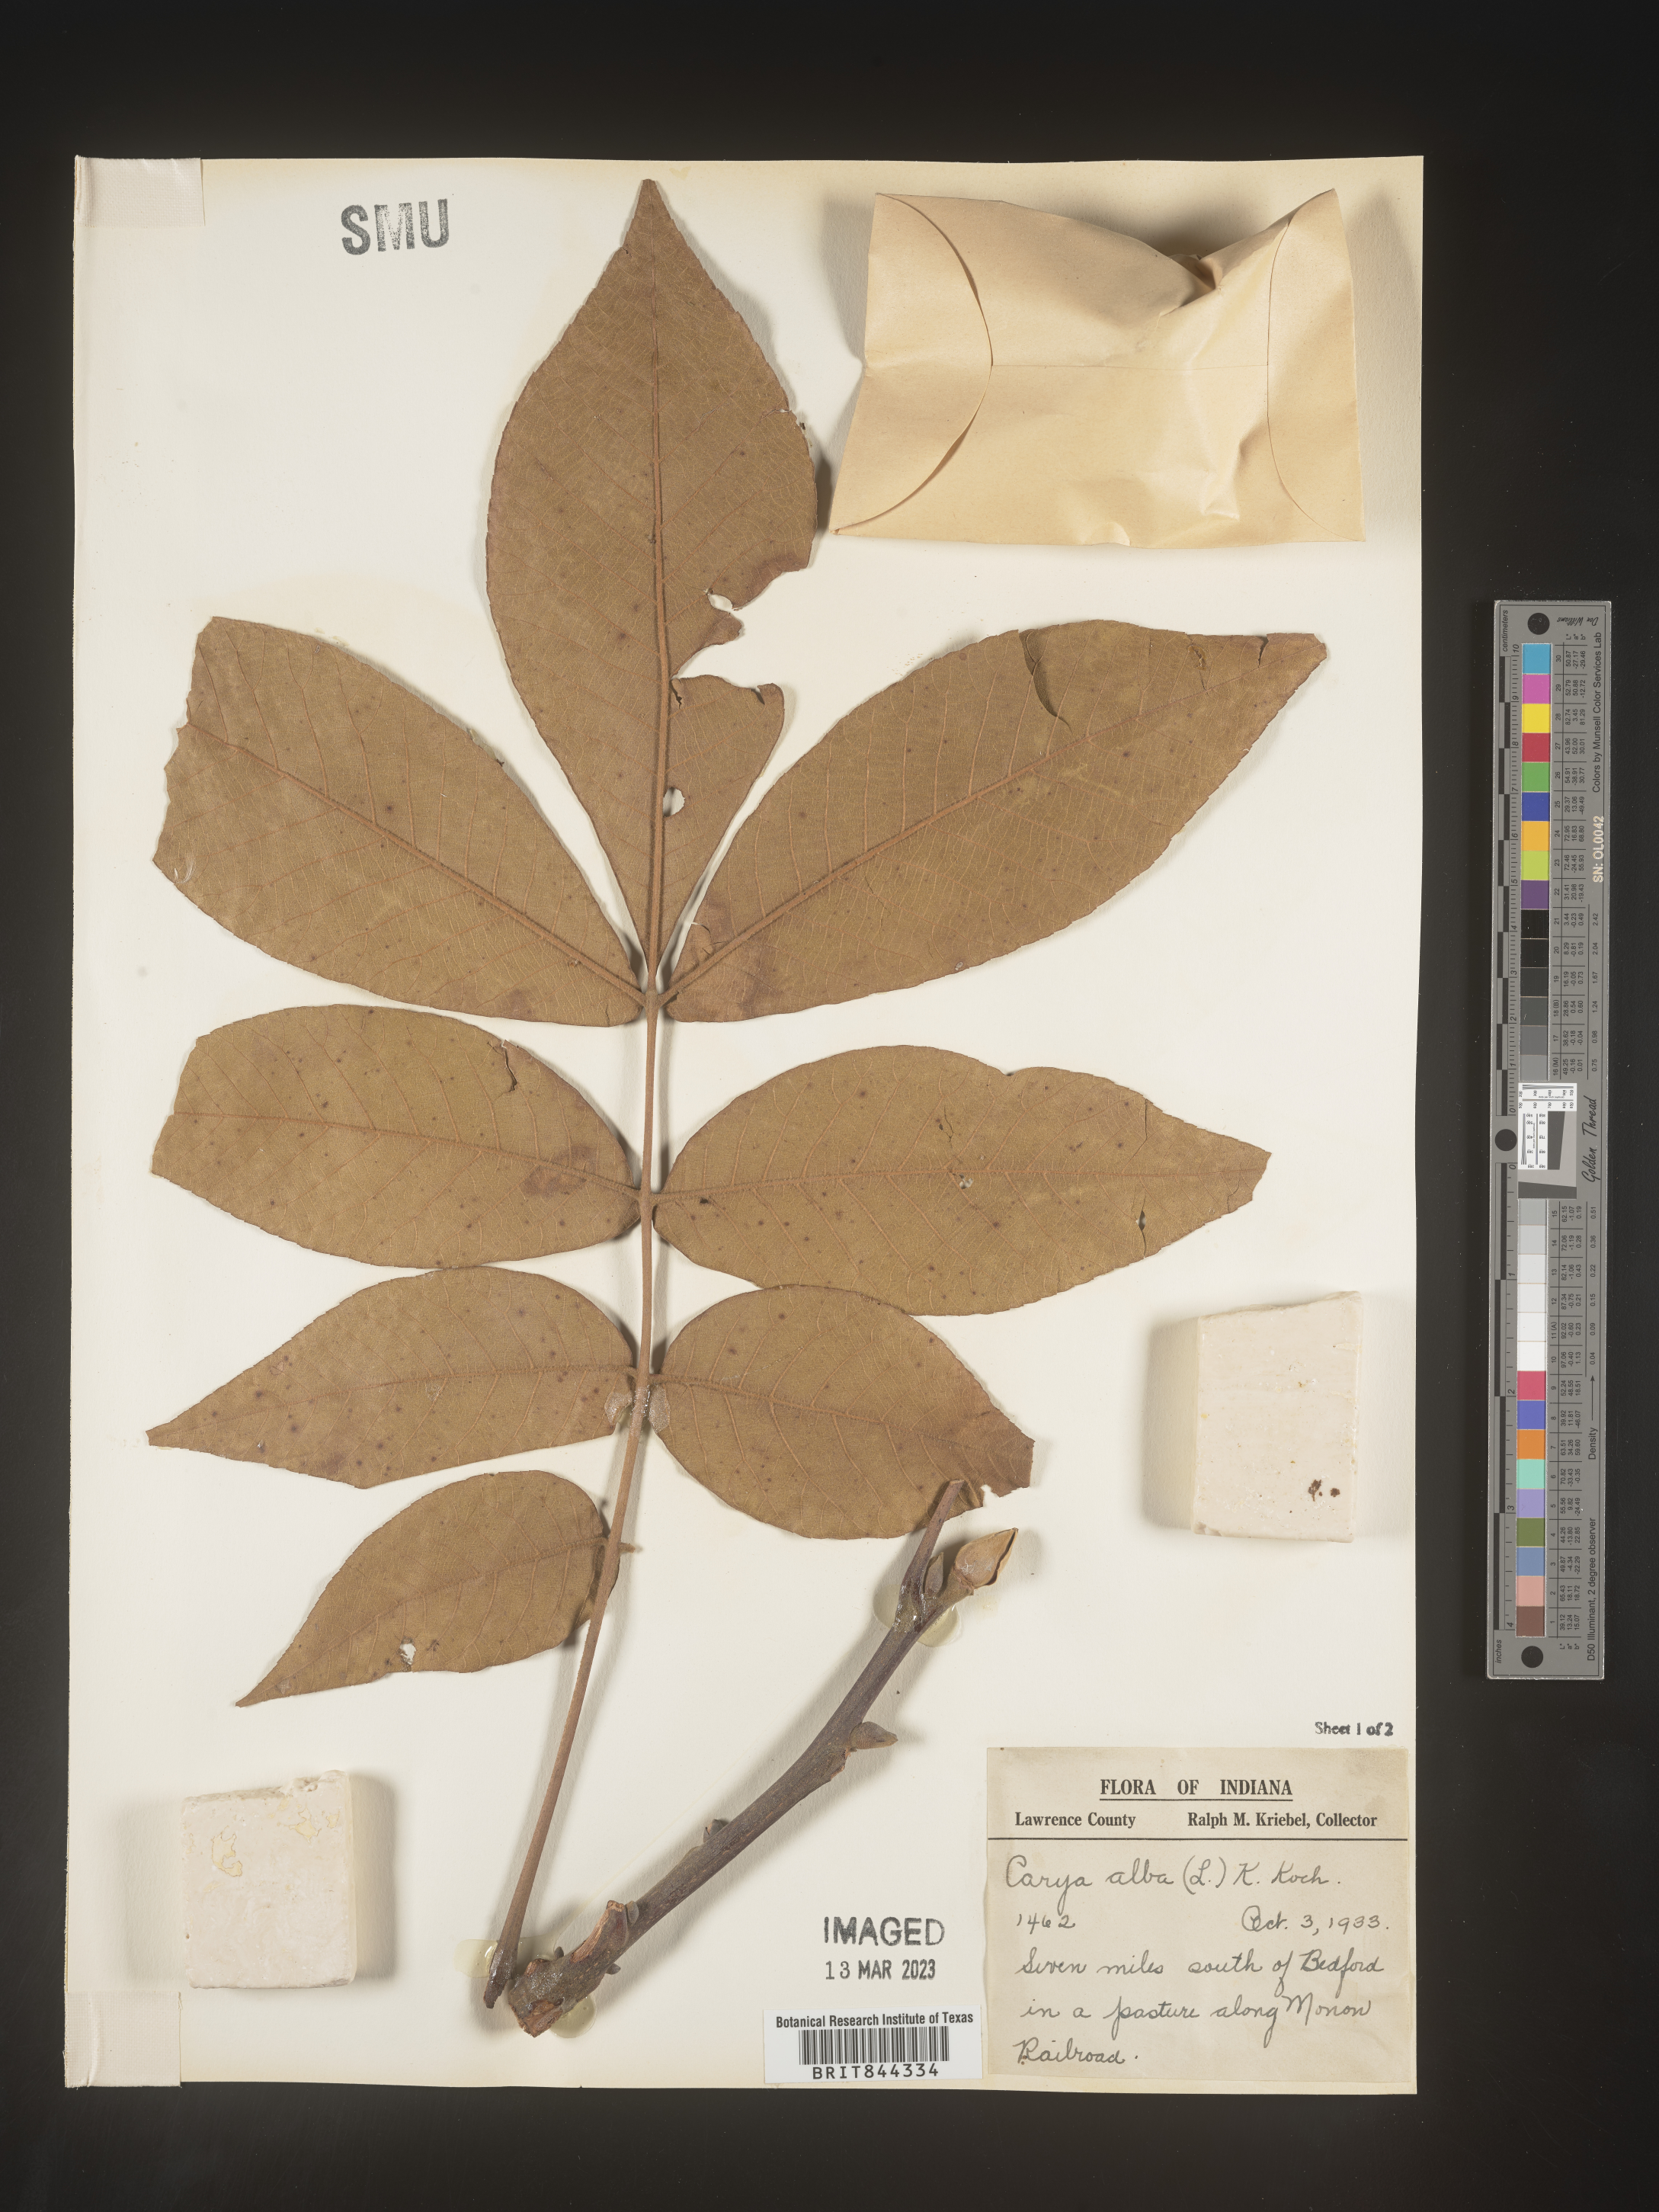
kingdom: Plantae
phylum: Tracheophyta
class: Magnoliopsida
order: Fagales
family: Juglandaceae
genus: Carya
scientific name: Carya alba
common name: Mockernut hickory
